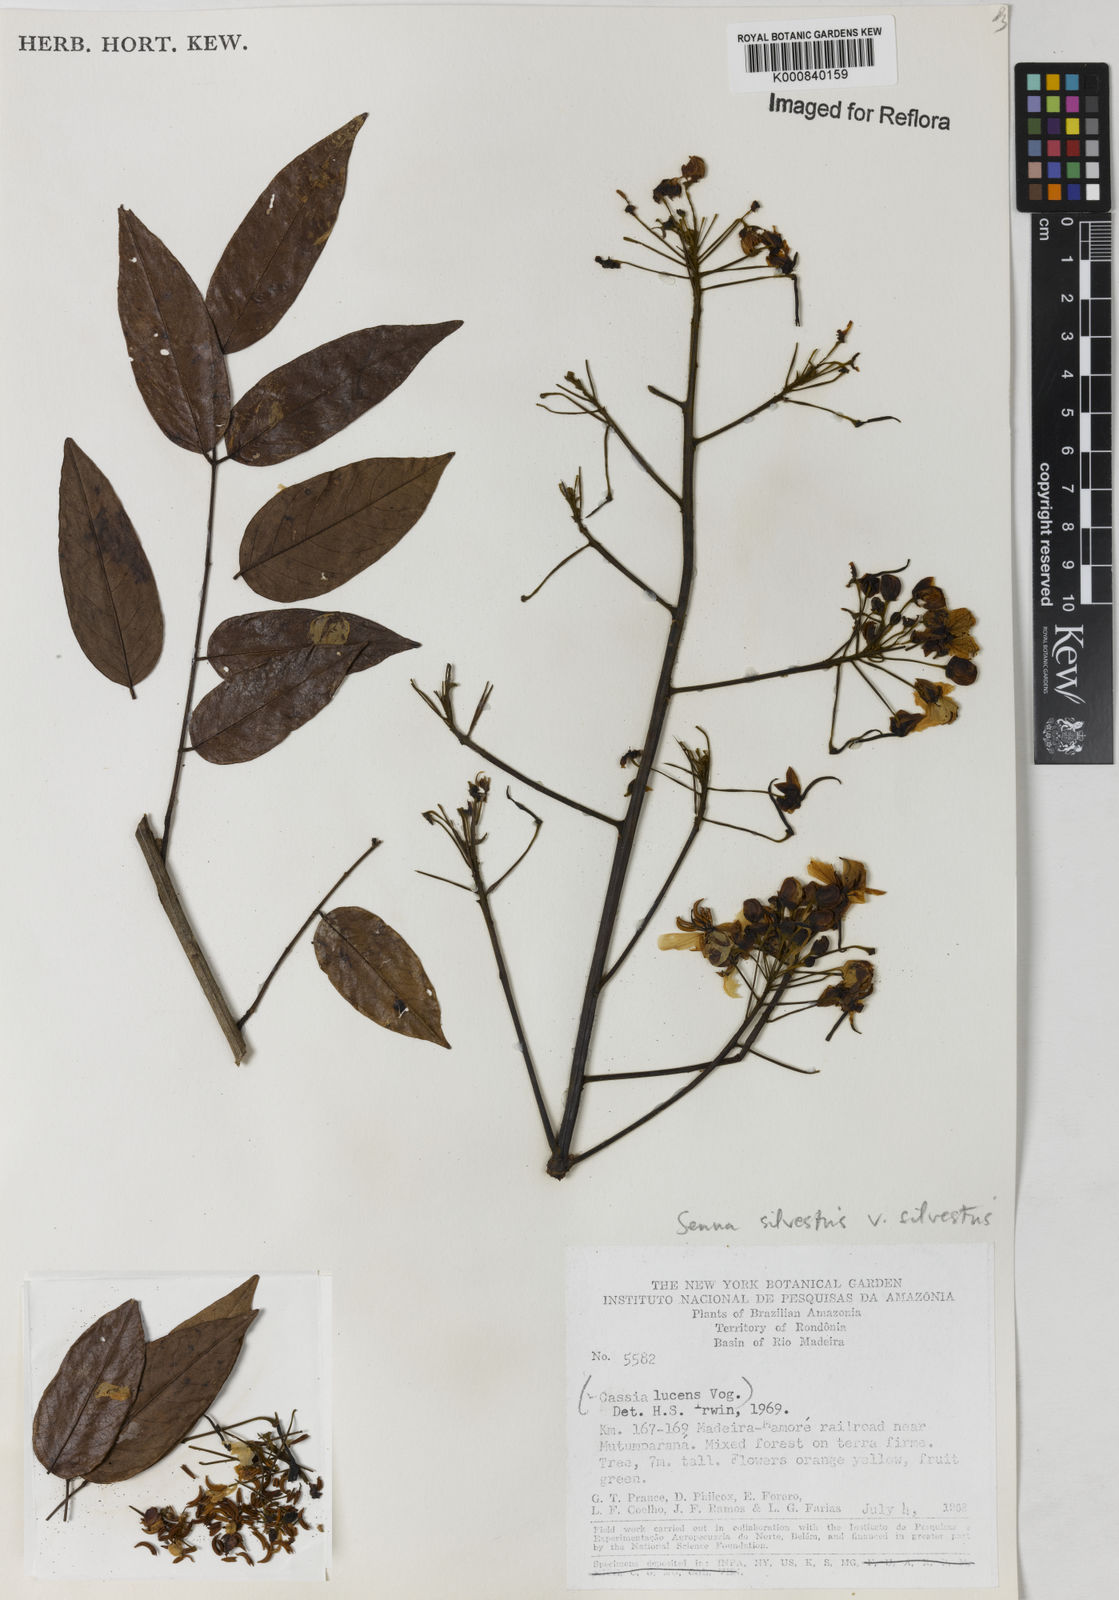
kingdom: Plantae
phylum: Tracheophyta
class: Magnoliopsida
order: Fabales
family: Fabaceae
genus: Senna
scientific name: Senna silvestris
